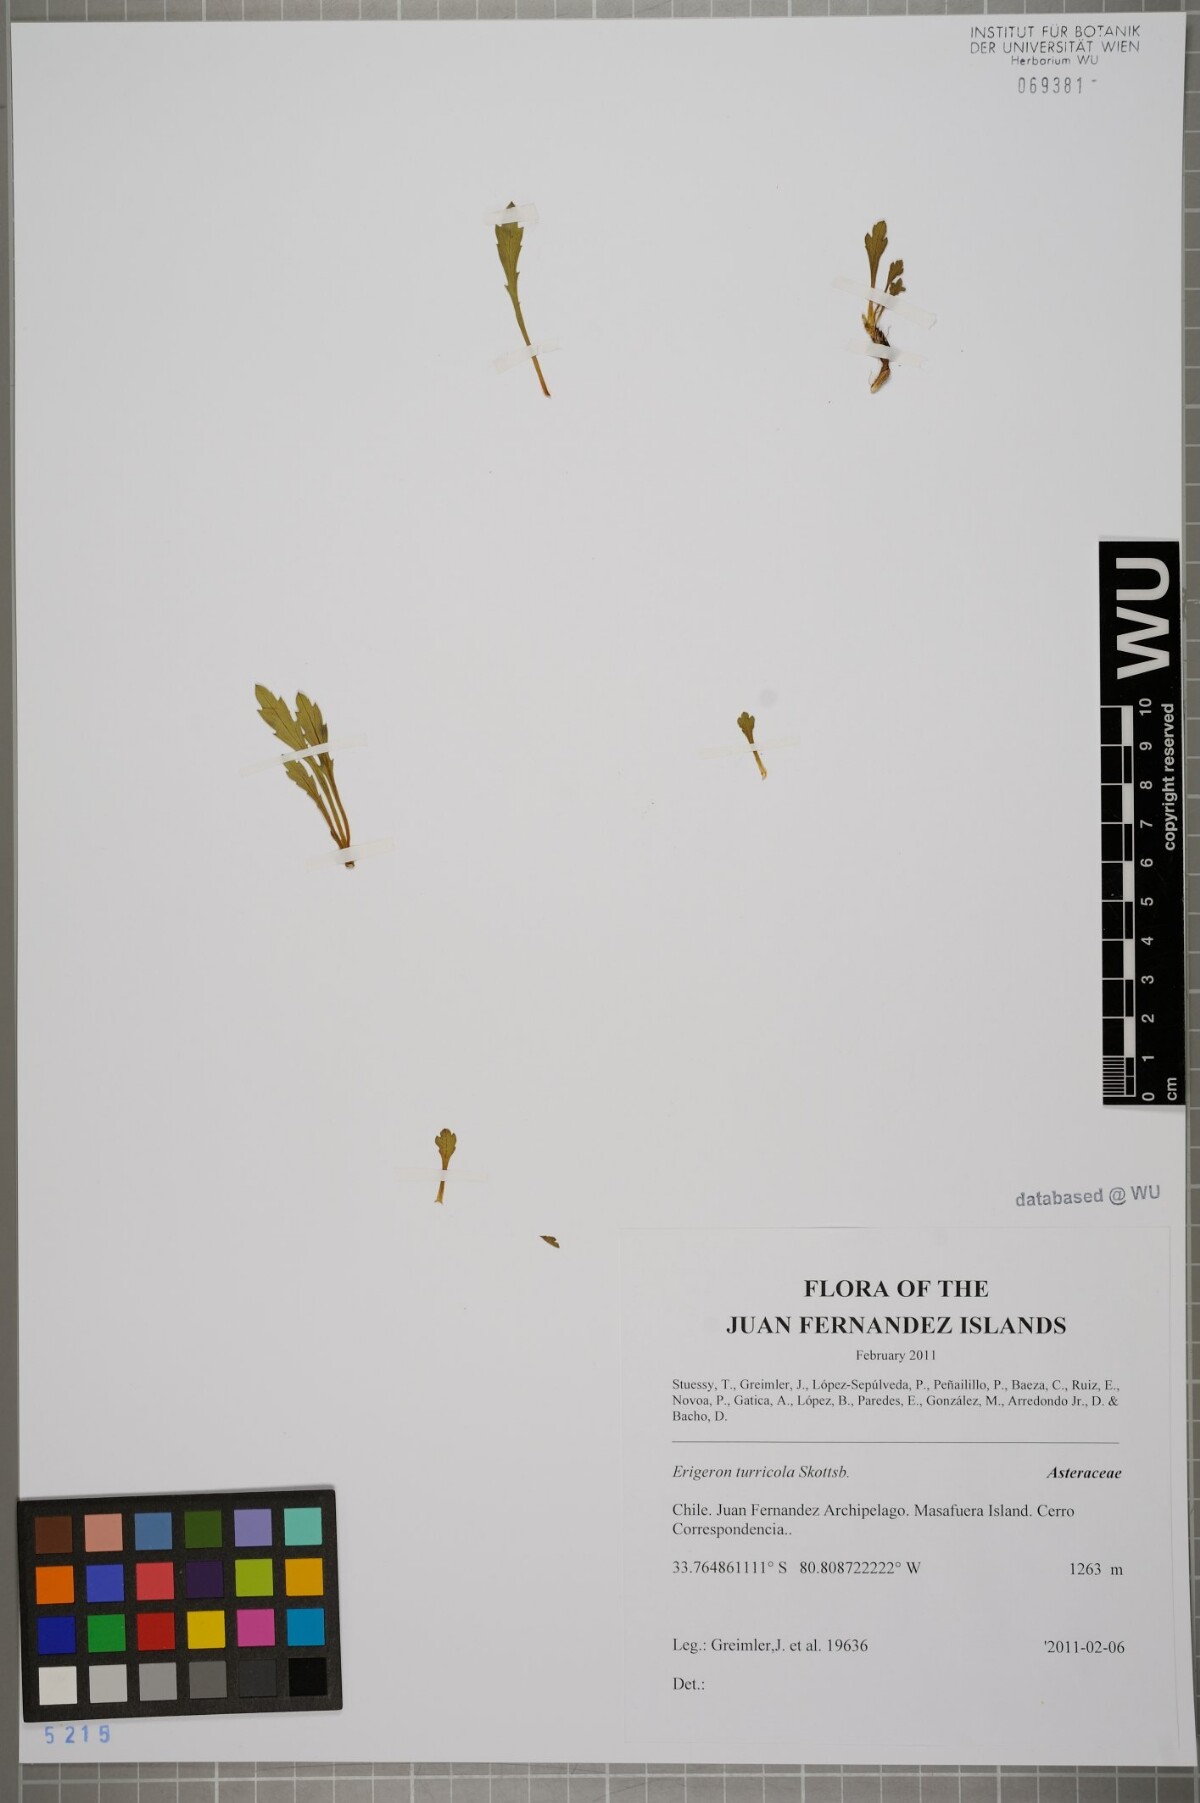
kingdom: Plantae
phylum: Tracheophyta
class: Magnoliopsida
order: Asterales
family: Asteraceae
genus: Erigeron
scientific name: Erigeron ingae
